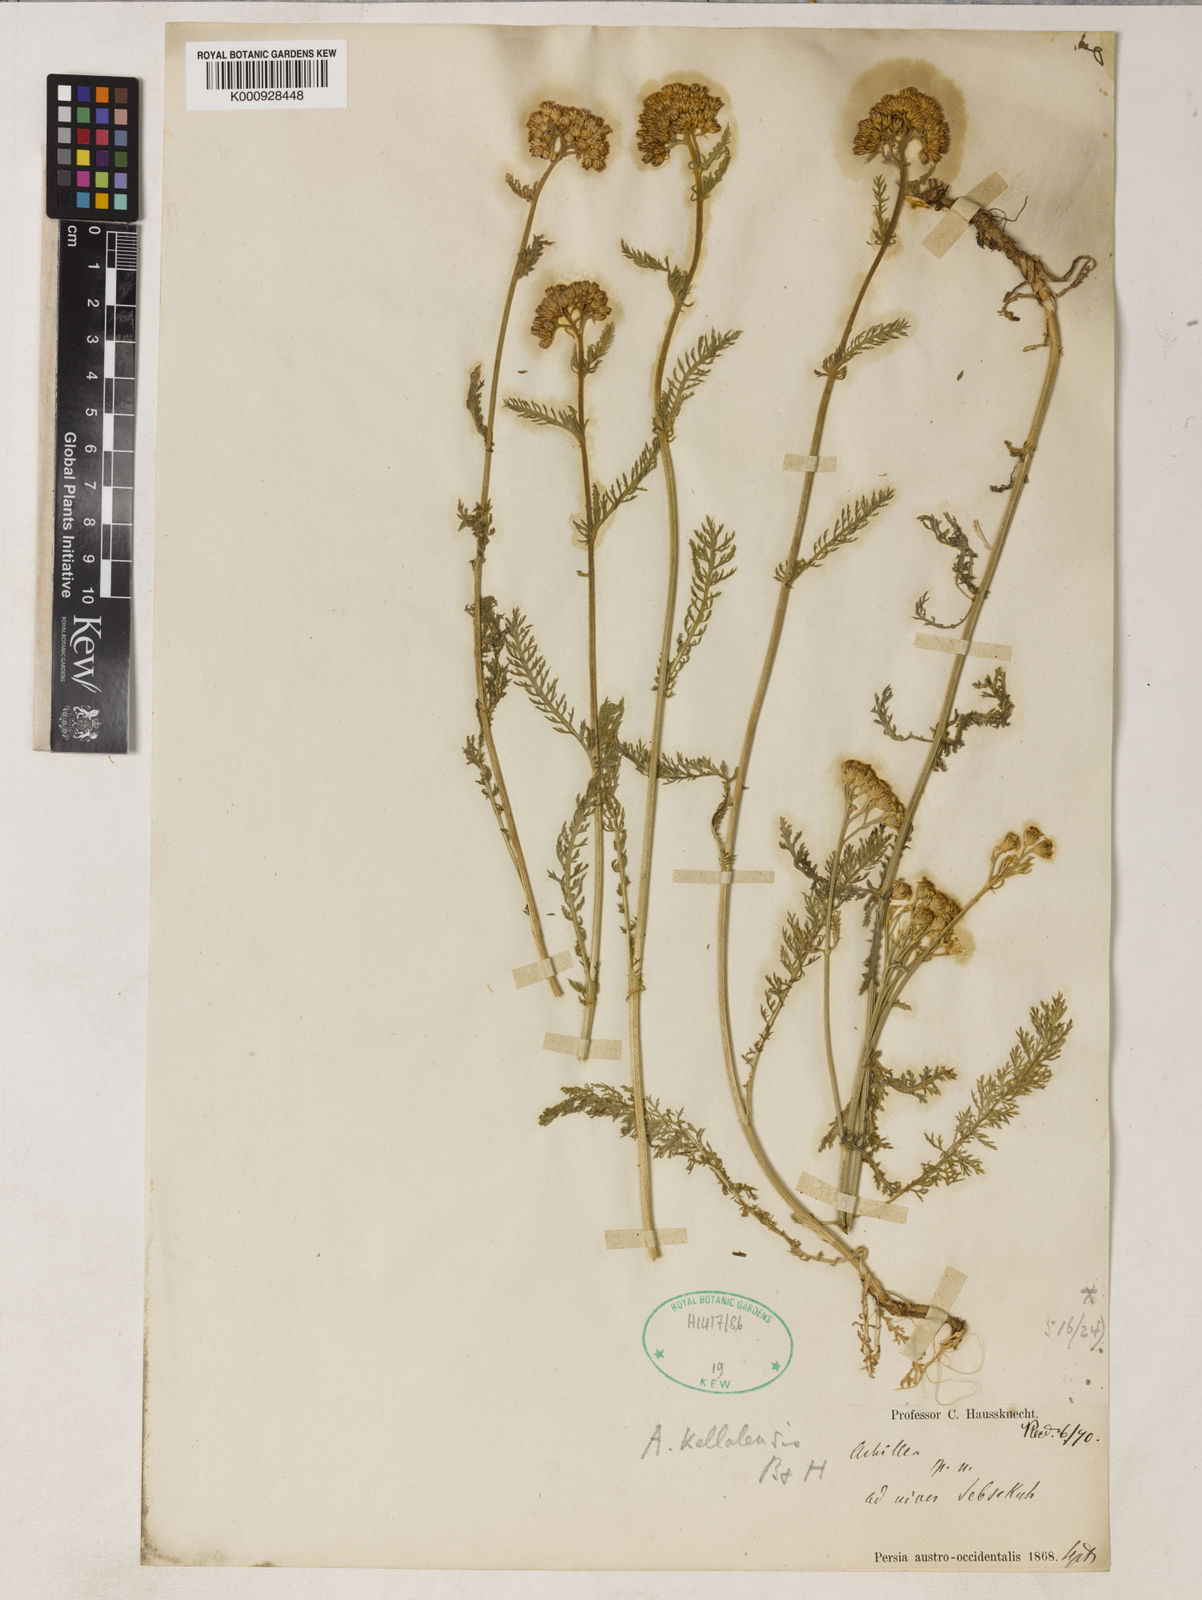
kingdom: Plantae
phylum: Tracheophyta
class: Magnoliopsida
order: Asterales
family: Asteraceae
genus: Achillea
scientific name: Achillea kellalensis
